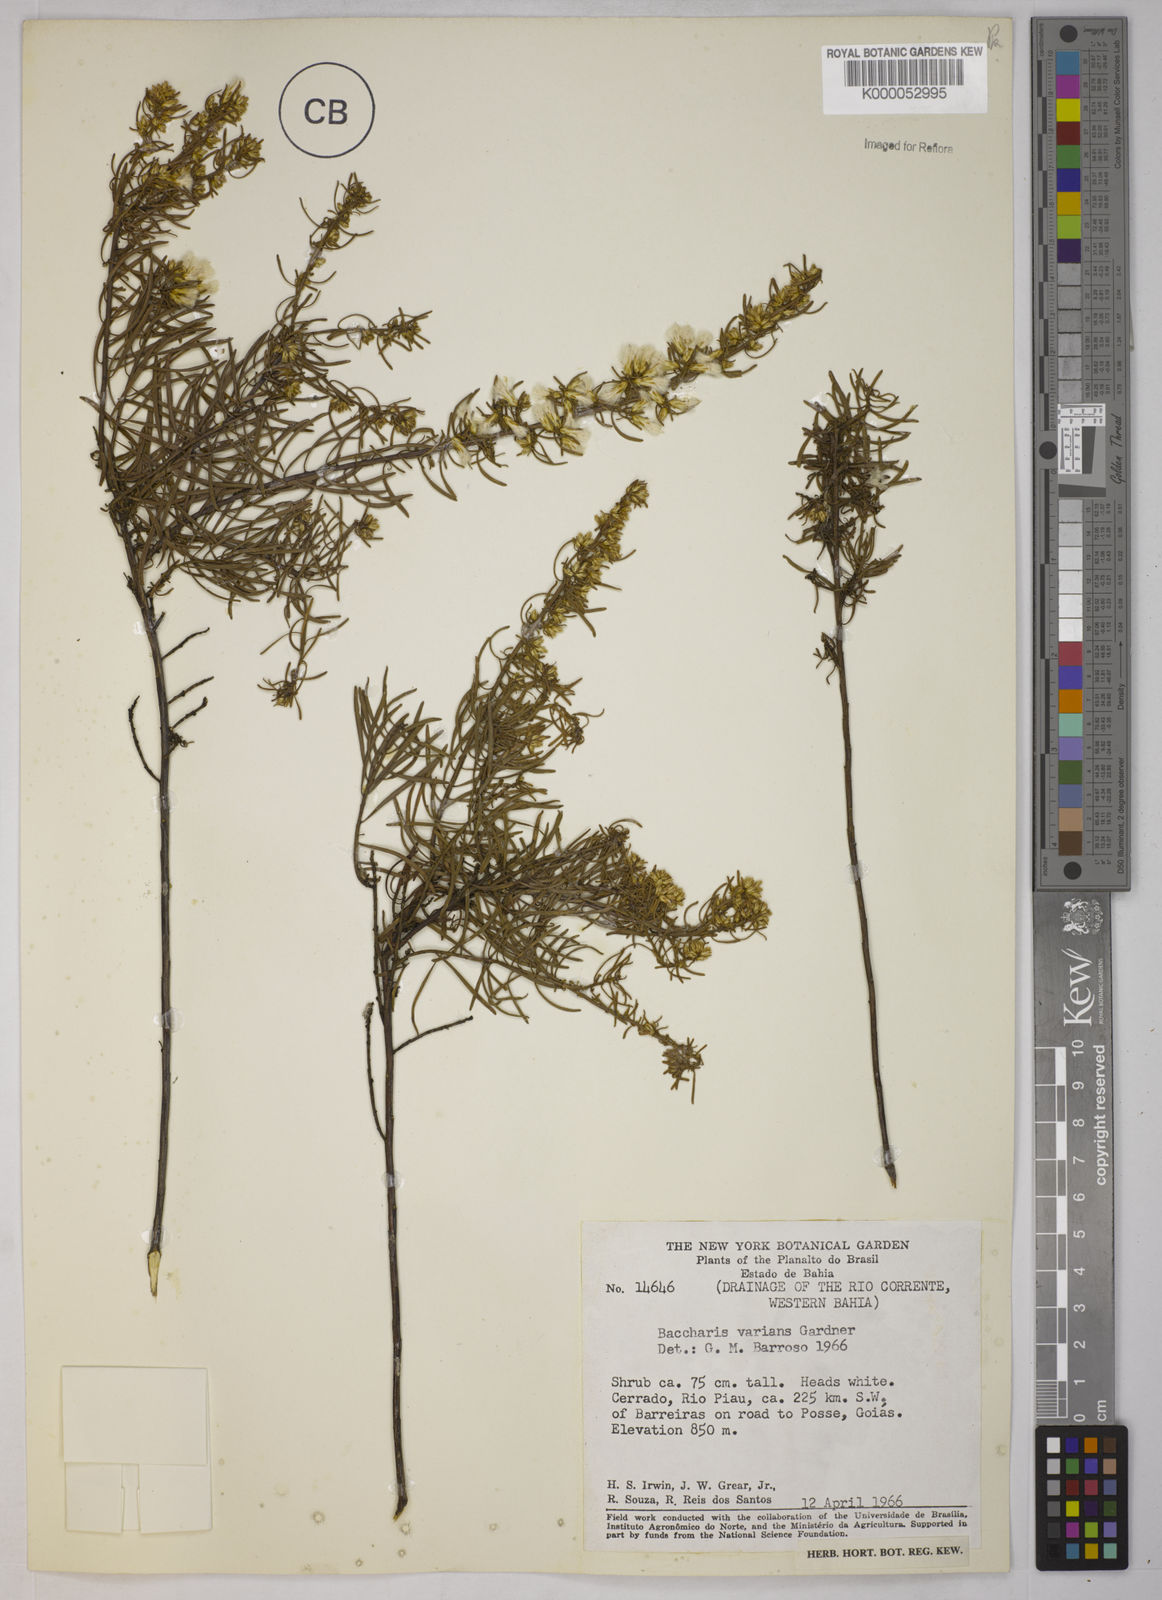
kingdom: Plantae
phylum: Tracheophyta
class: Magnoliopsida
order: Asterales
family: Asteraceae
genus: Baccharis
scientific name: Baccharis leptocephala
